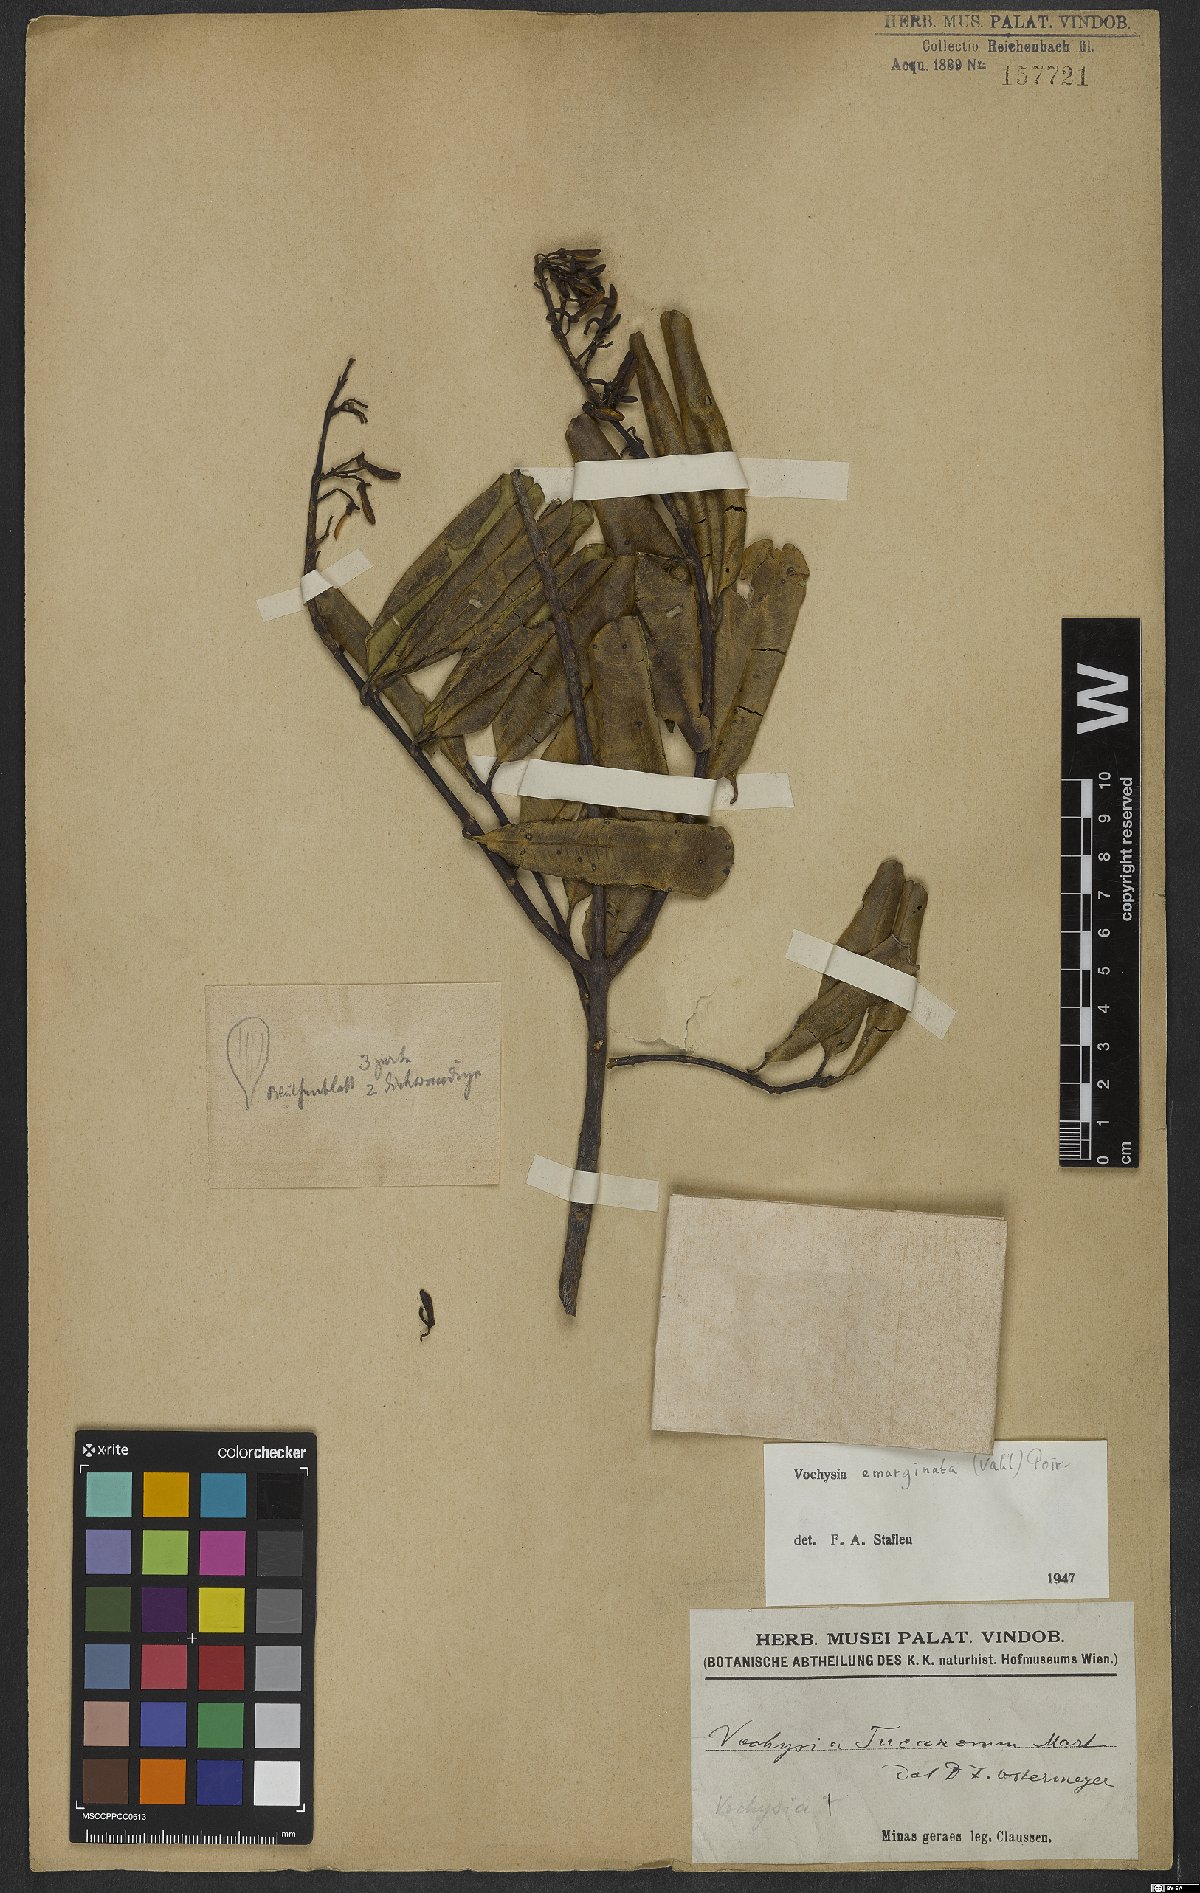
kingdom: Plantae
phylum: Tracheophyta
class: Magnoliopsida
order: Myrtales
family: Vochysiaceae
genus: Vochysia
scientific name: Vochysia emarginata
